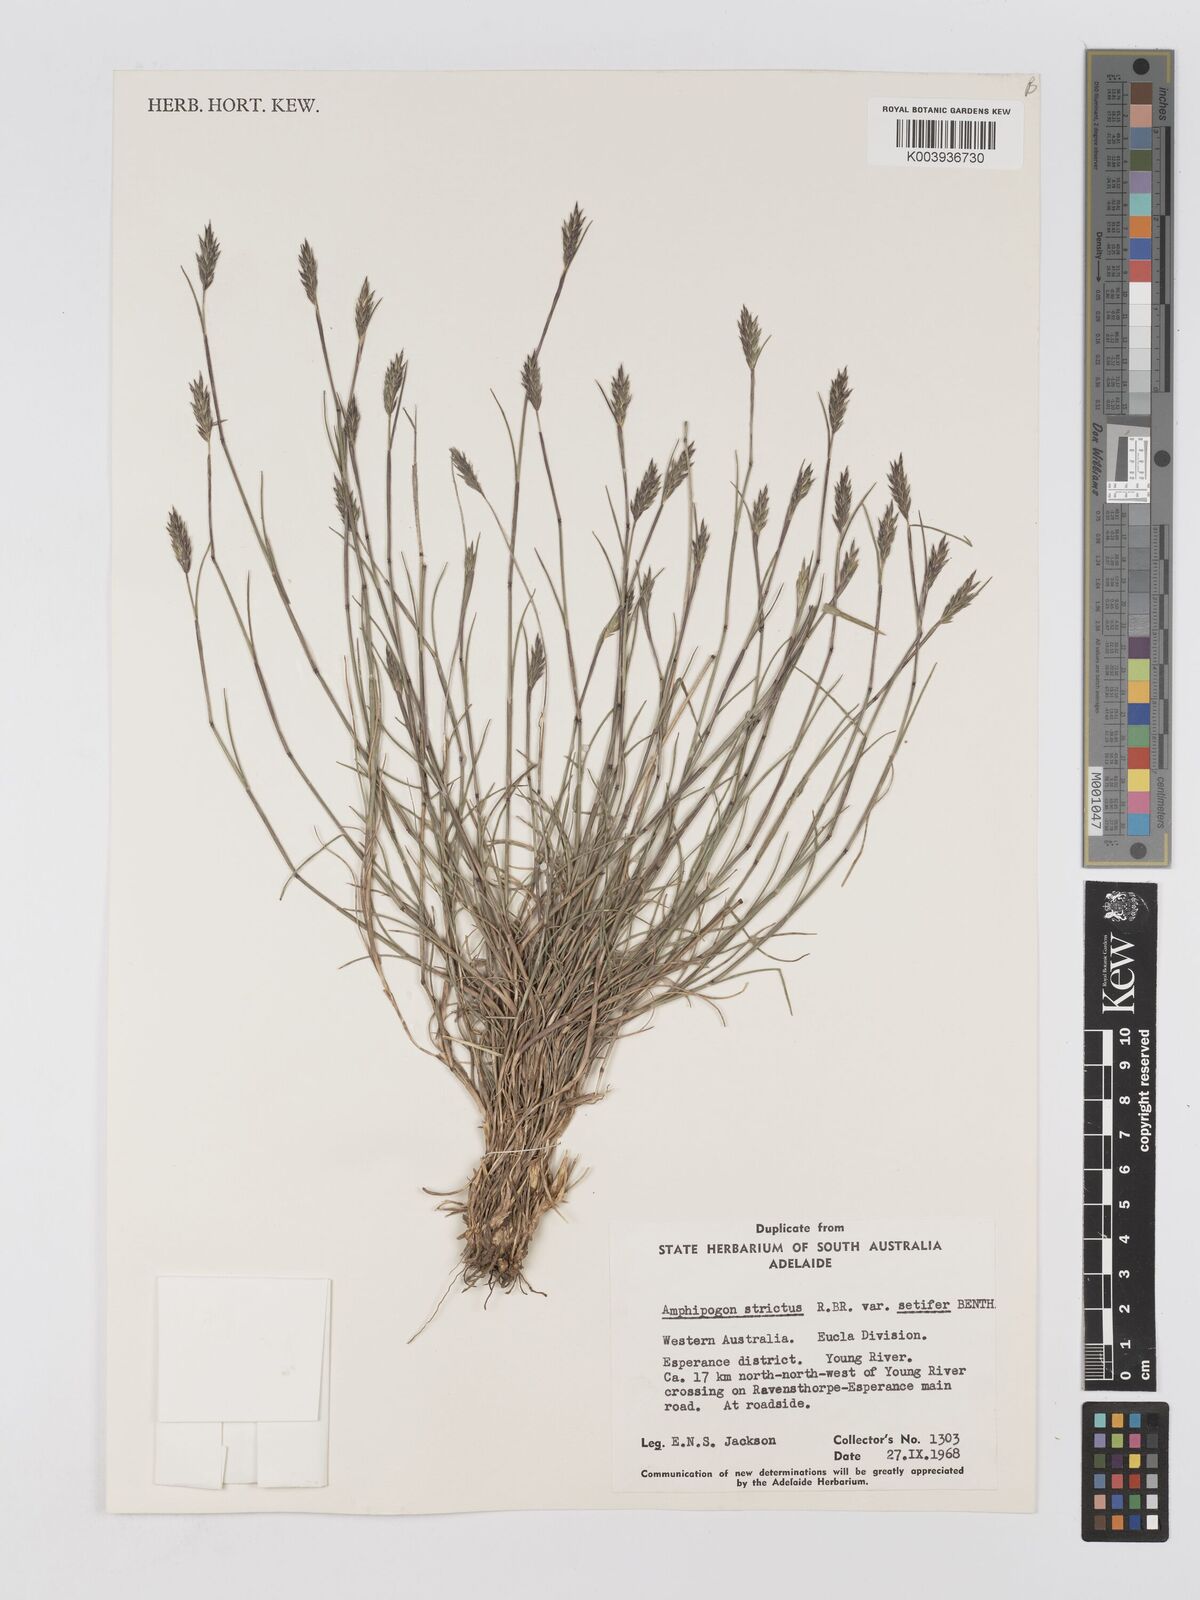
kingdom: Plantae
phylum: Tracheophyta
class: Liliopsida
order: Poales
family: Poaceae
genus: Amphipogon
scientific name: Amphipogon strictus
